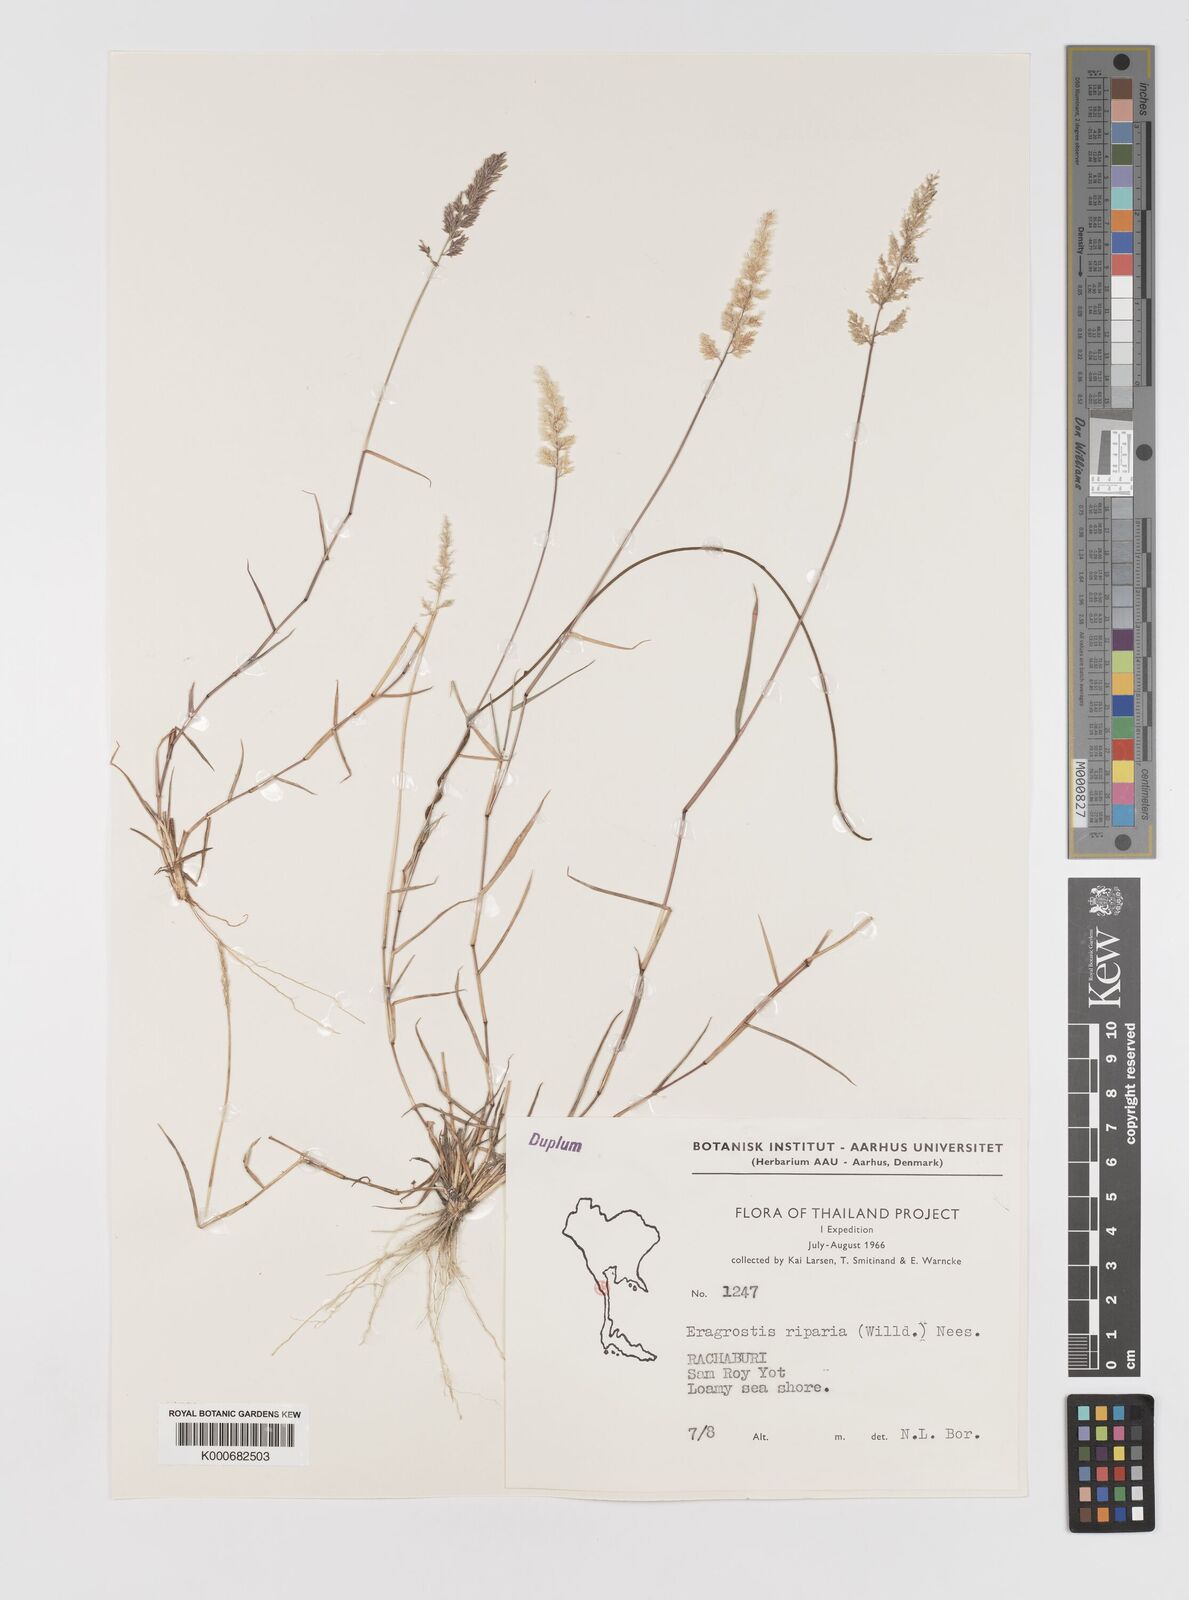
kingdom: Plantae
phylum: Tracheophyta
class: Liliopsida
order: Poales
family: Poaceae
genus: Eragrostis
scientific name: Eragrostis riparia
